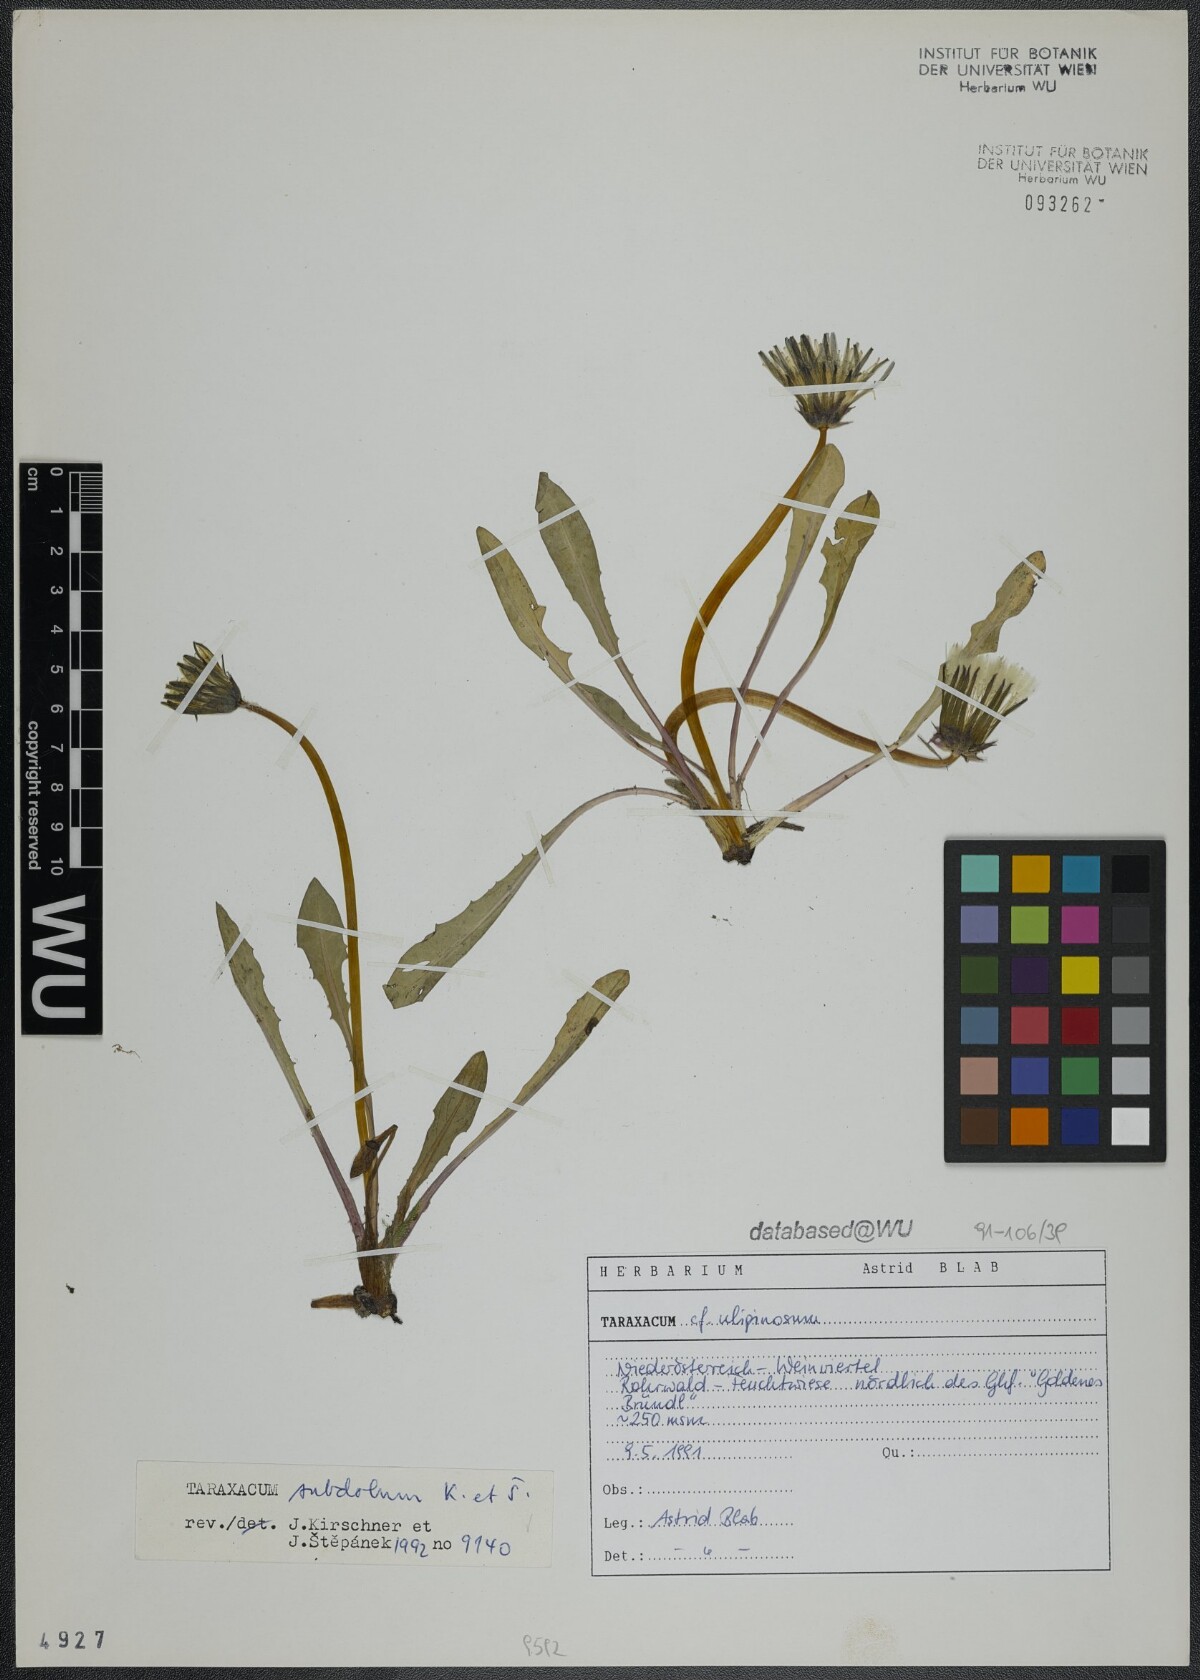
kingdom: Plantae
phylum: Tracheophyta
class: Magnoliopsida
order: Asterales
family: Asteraceae
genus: Taraxacum
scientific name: Taraxacum subdolum
